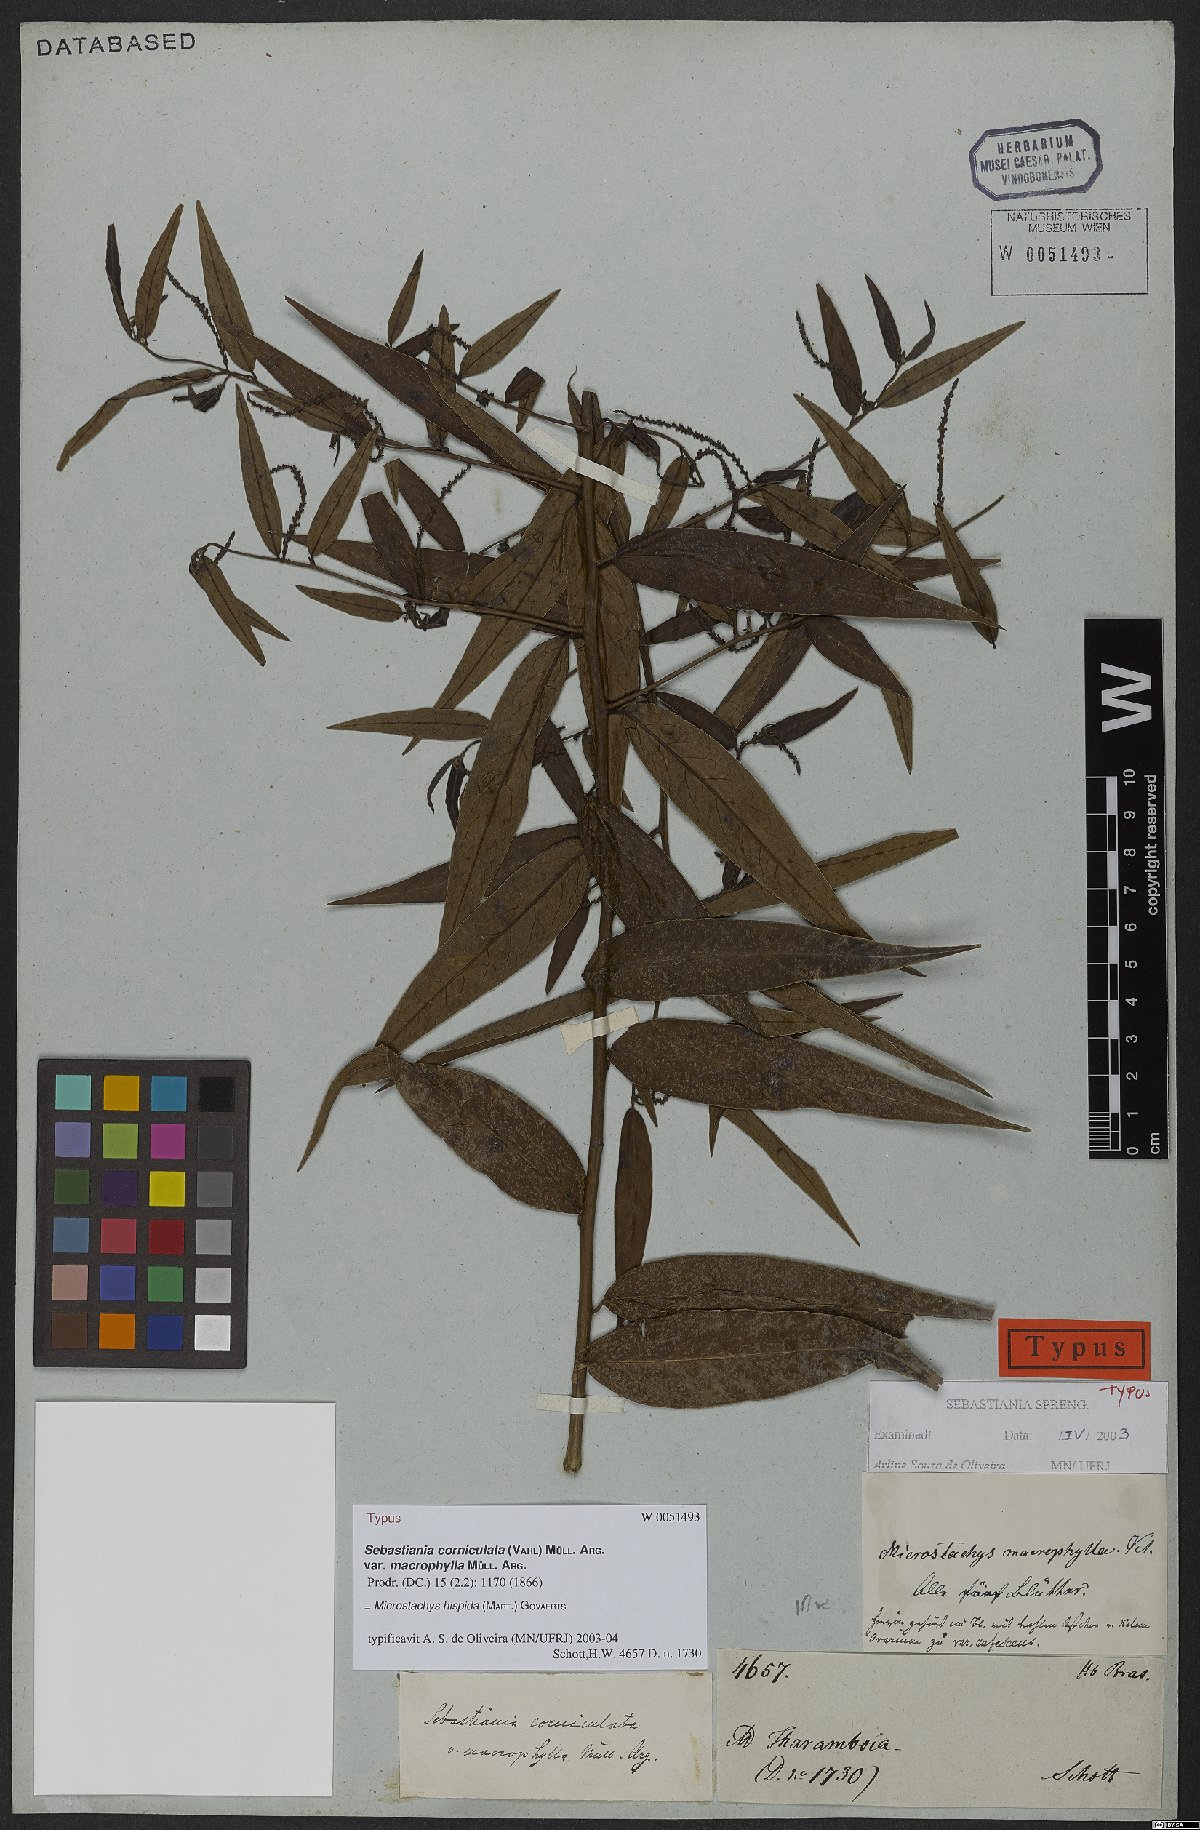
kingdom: Plantae
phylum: Tracheophyta
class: Magnoliopsida
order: Malpighiales
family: Euphorbiaceae
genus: Microstachys
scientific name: Microstachys hispida
